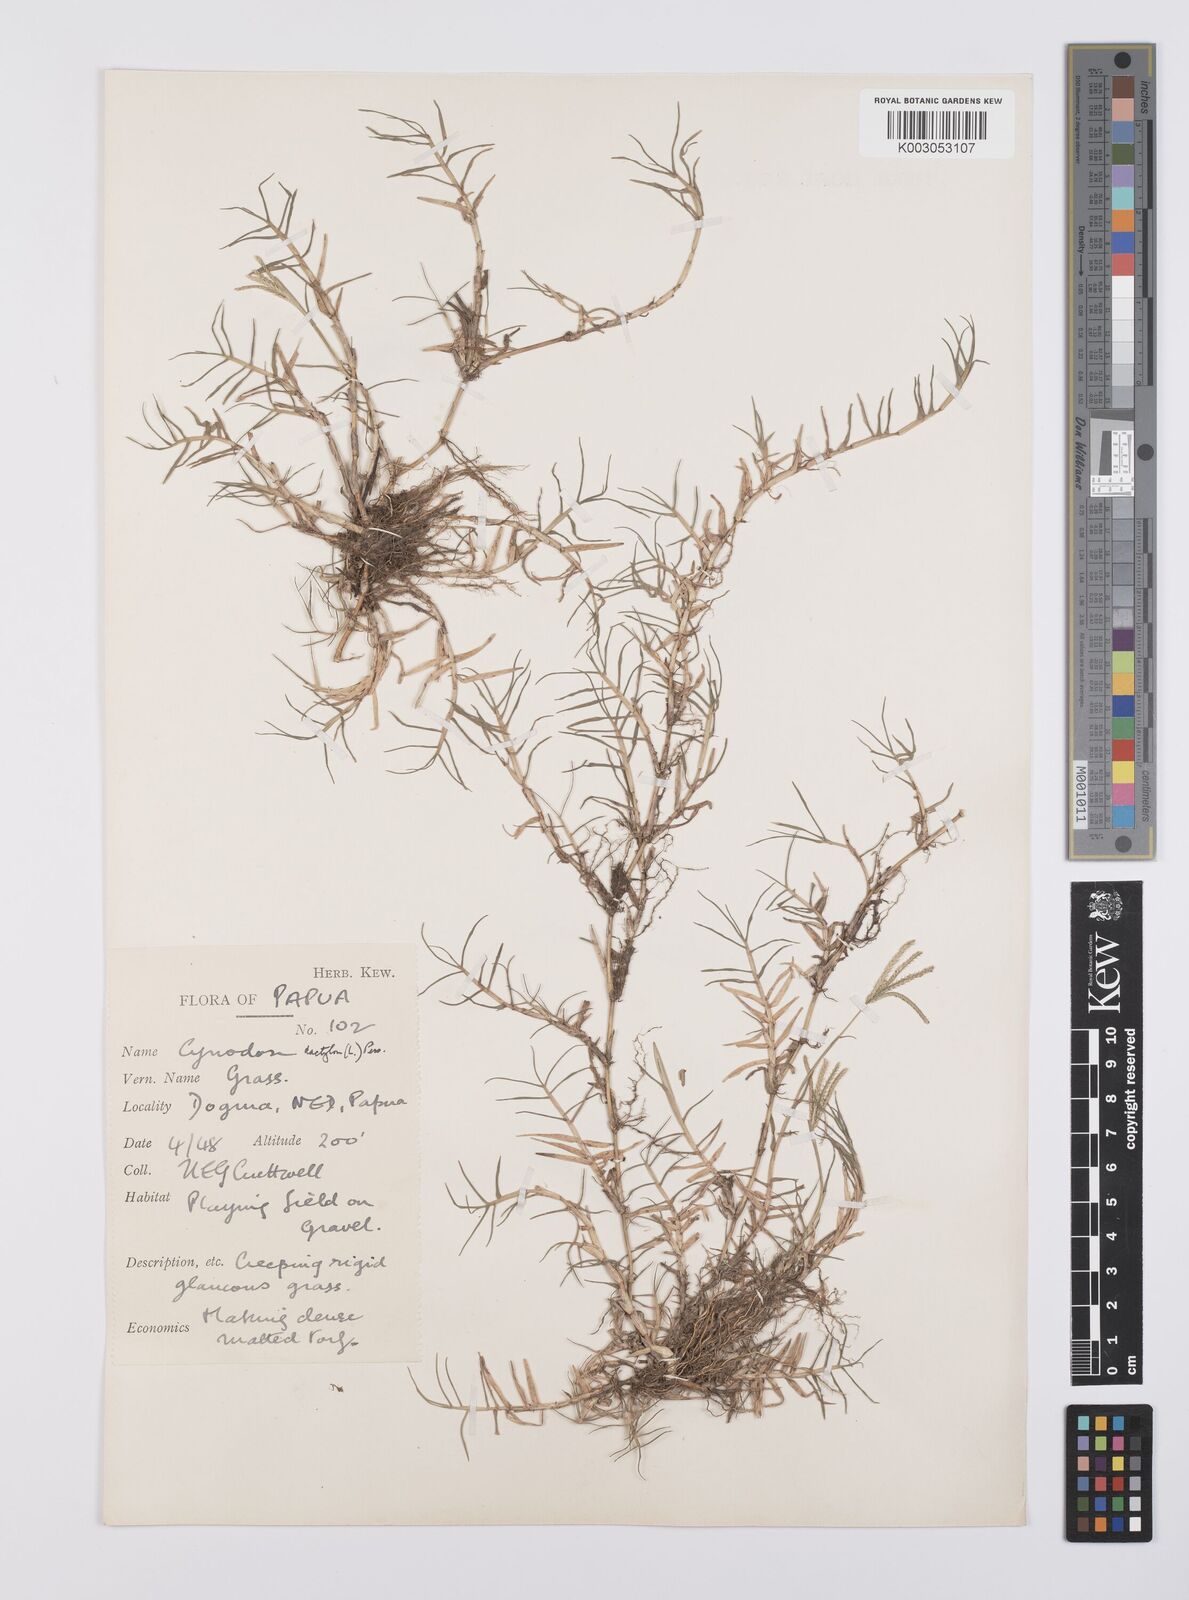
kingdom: Plantae
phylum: Tracheophyta
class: Liliopsida
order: Poales
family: Poaceae
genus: Cynodon
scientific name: Cynodon dactylon
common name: Bermuda grass
